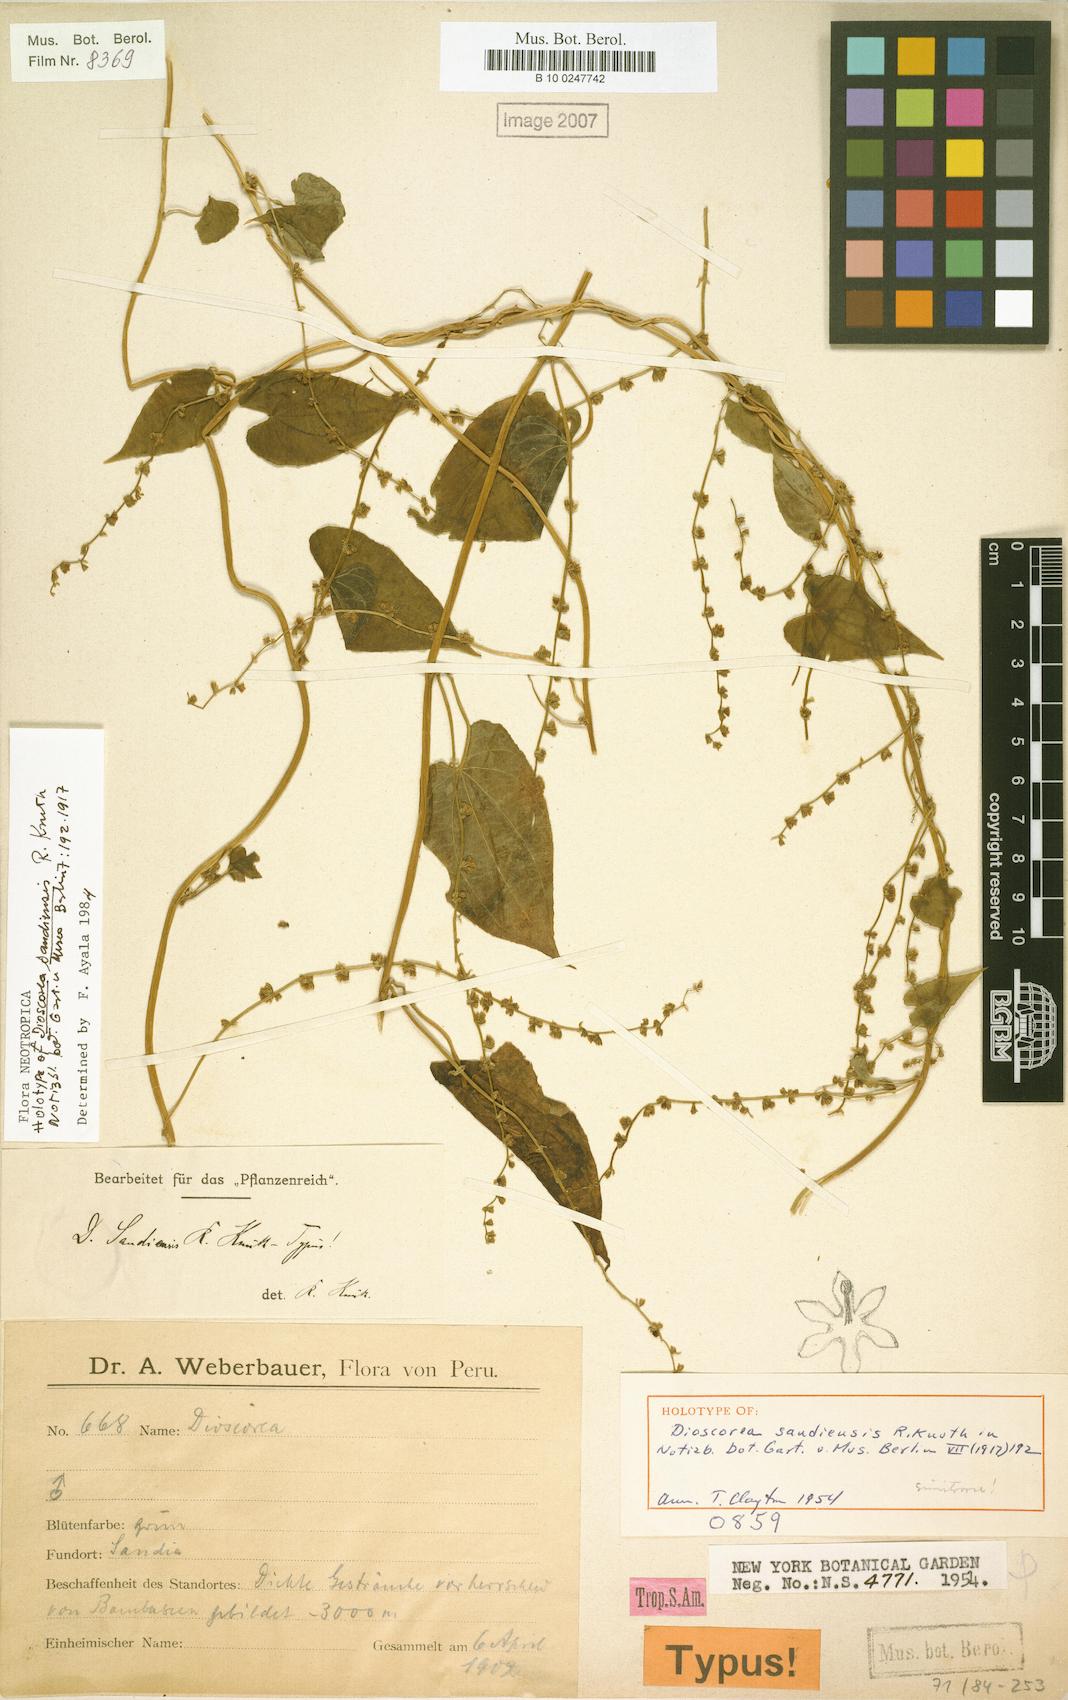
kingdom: Plantae
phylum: Tracheophyta
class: Liliopsida
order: Dioscoreales
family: Dioscoreaceae
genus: Dioscorea
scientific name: Dioscorea sandiensis
